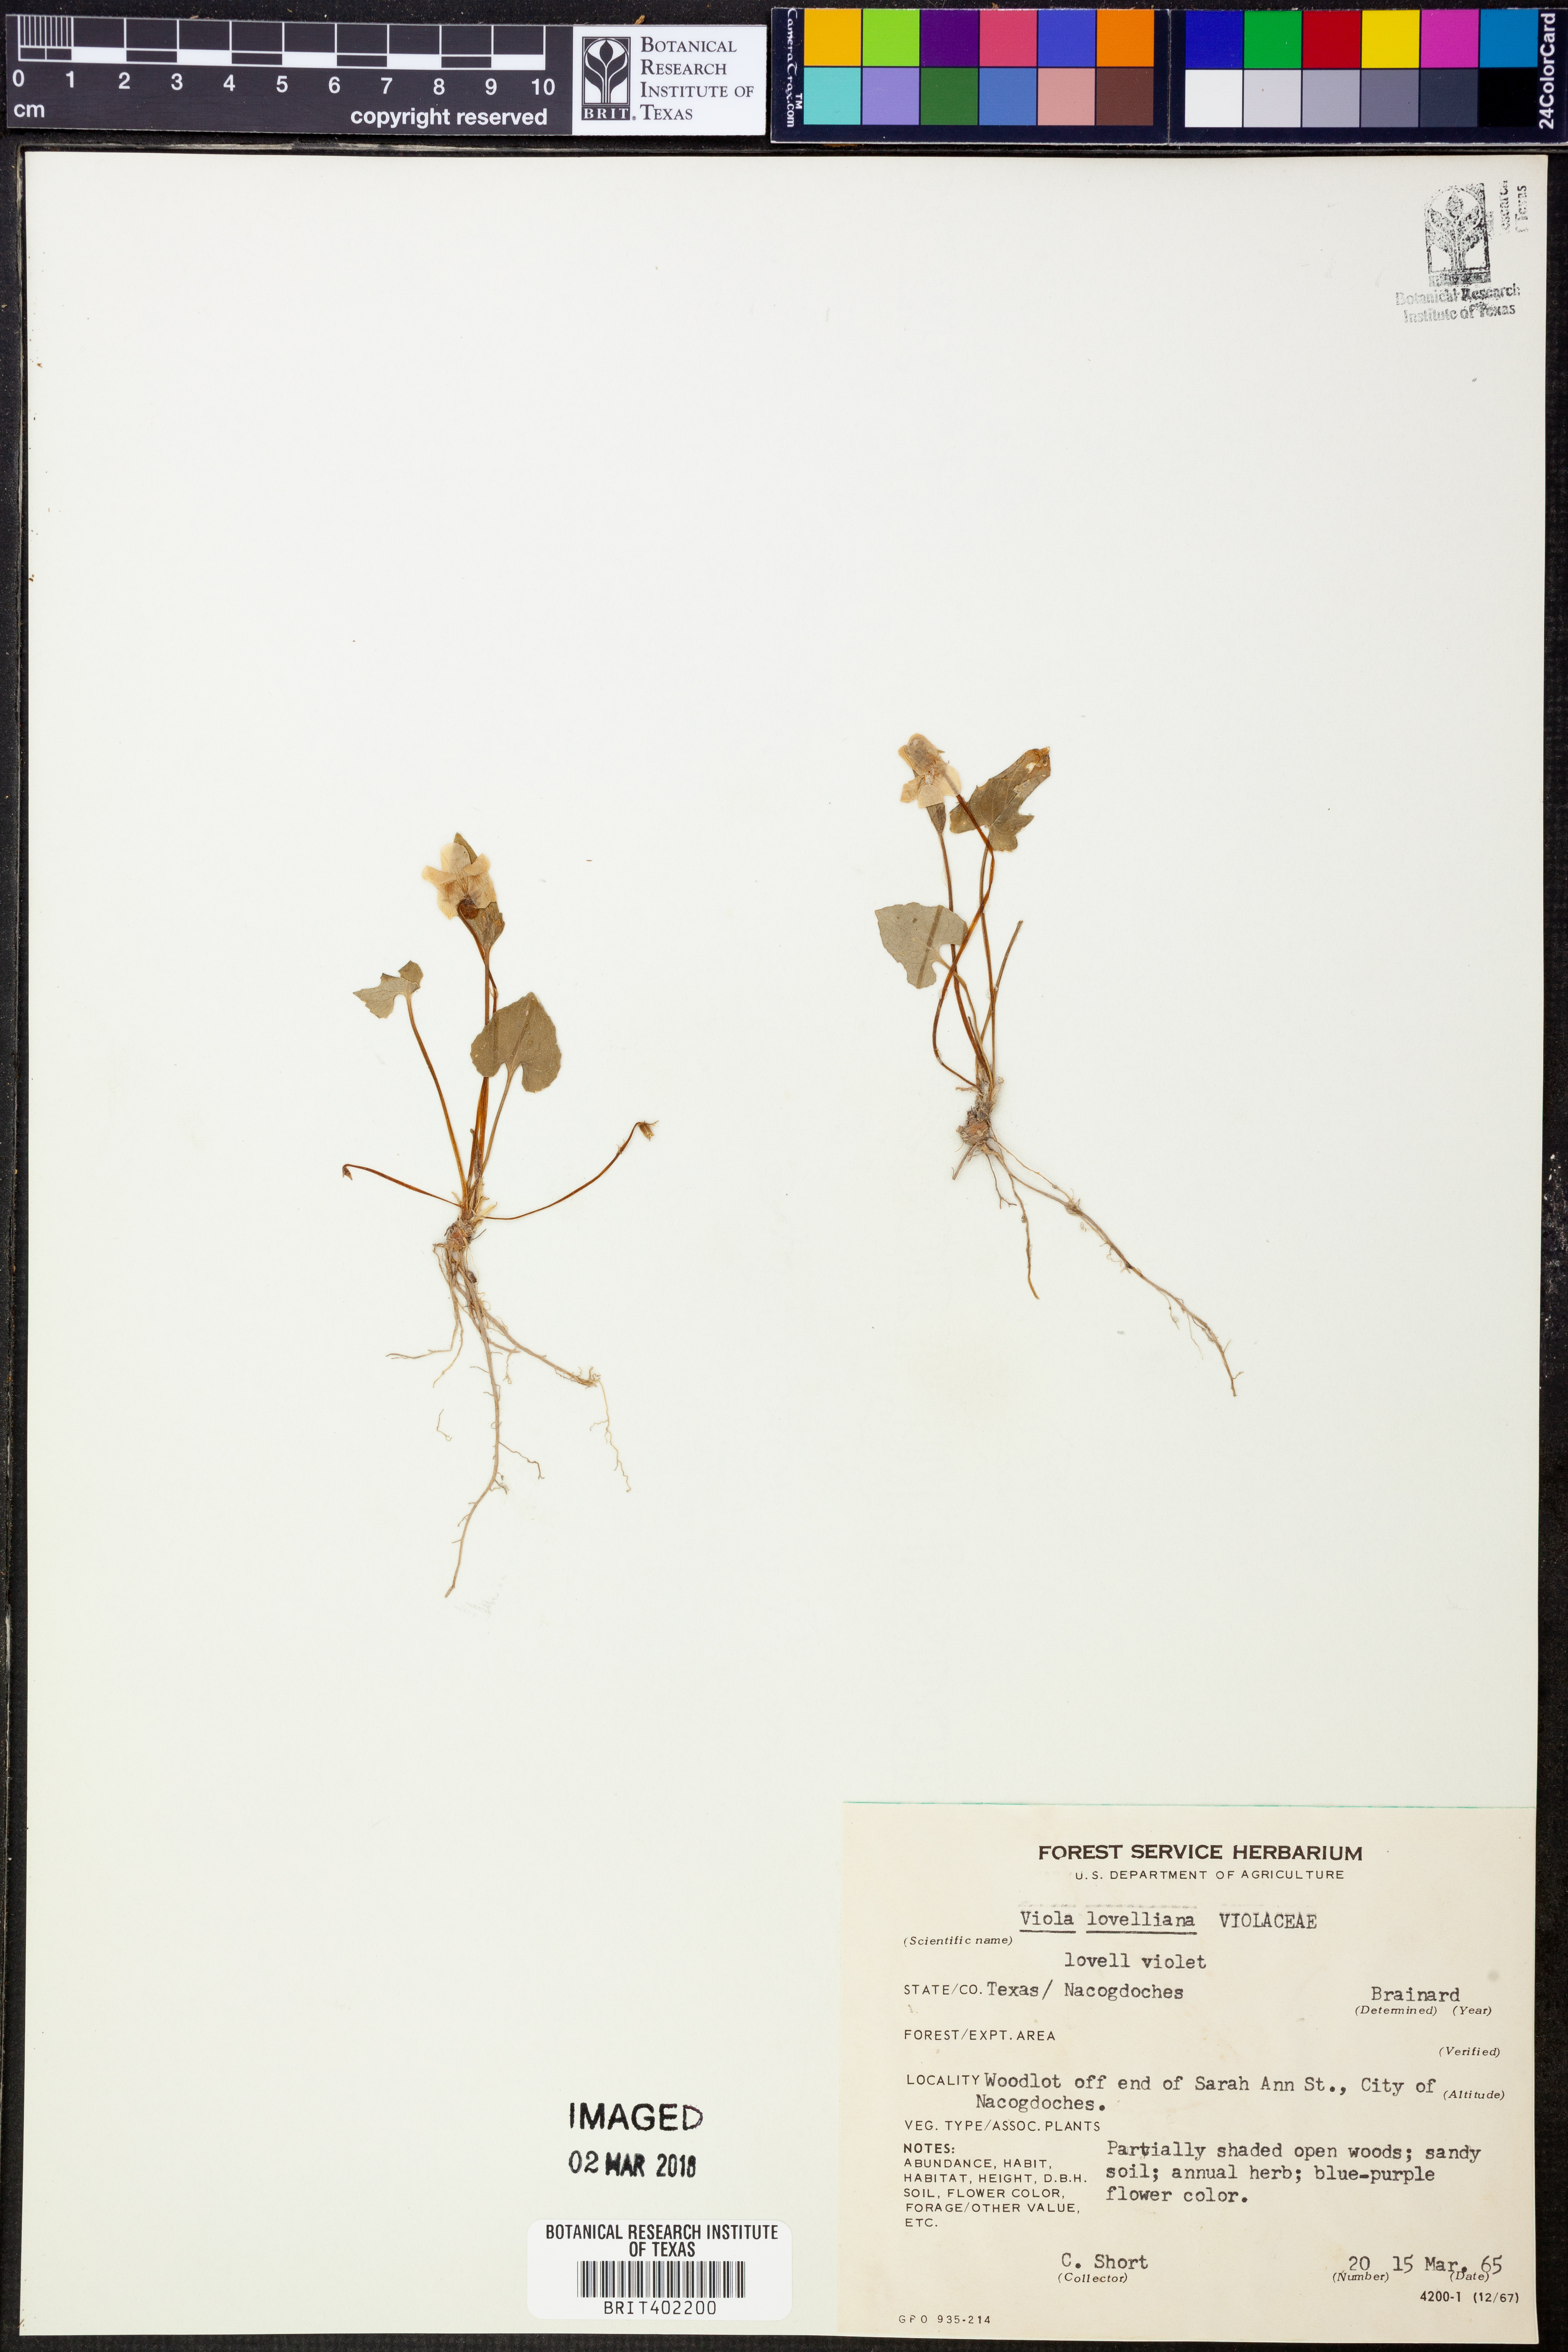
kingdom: Plantae
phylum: Tracheophyta
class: Magnoliopsida
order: Malpighiales
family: Violaceae
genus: Viola
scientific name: Viola lovelliana
